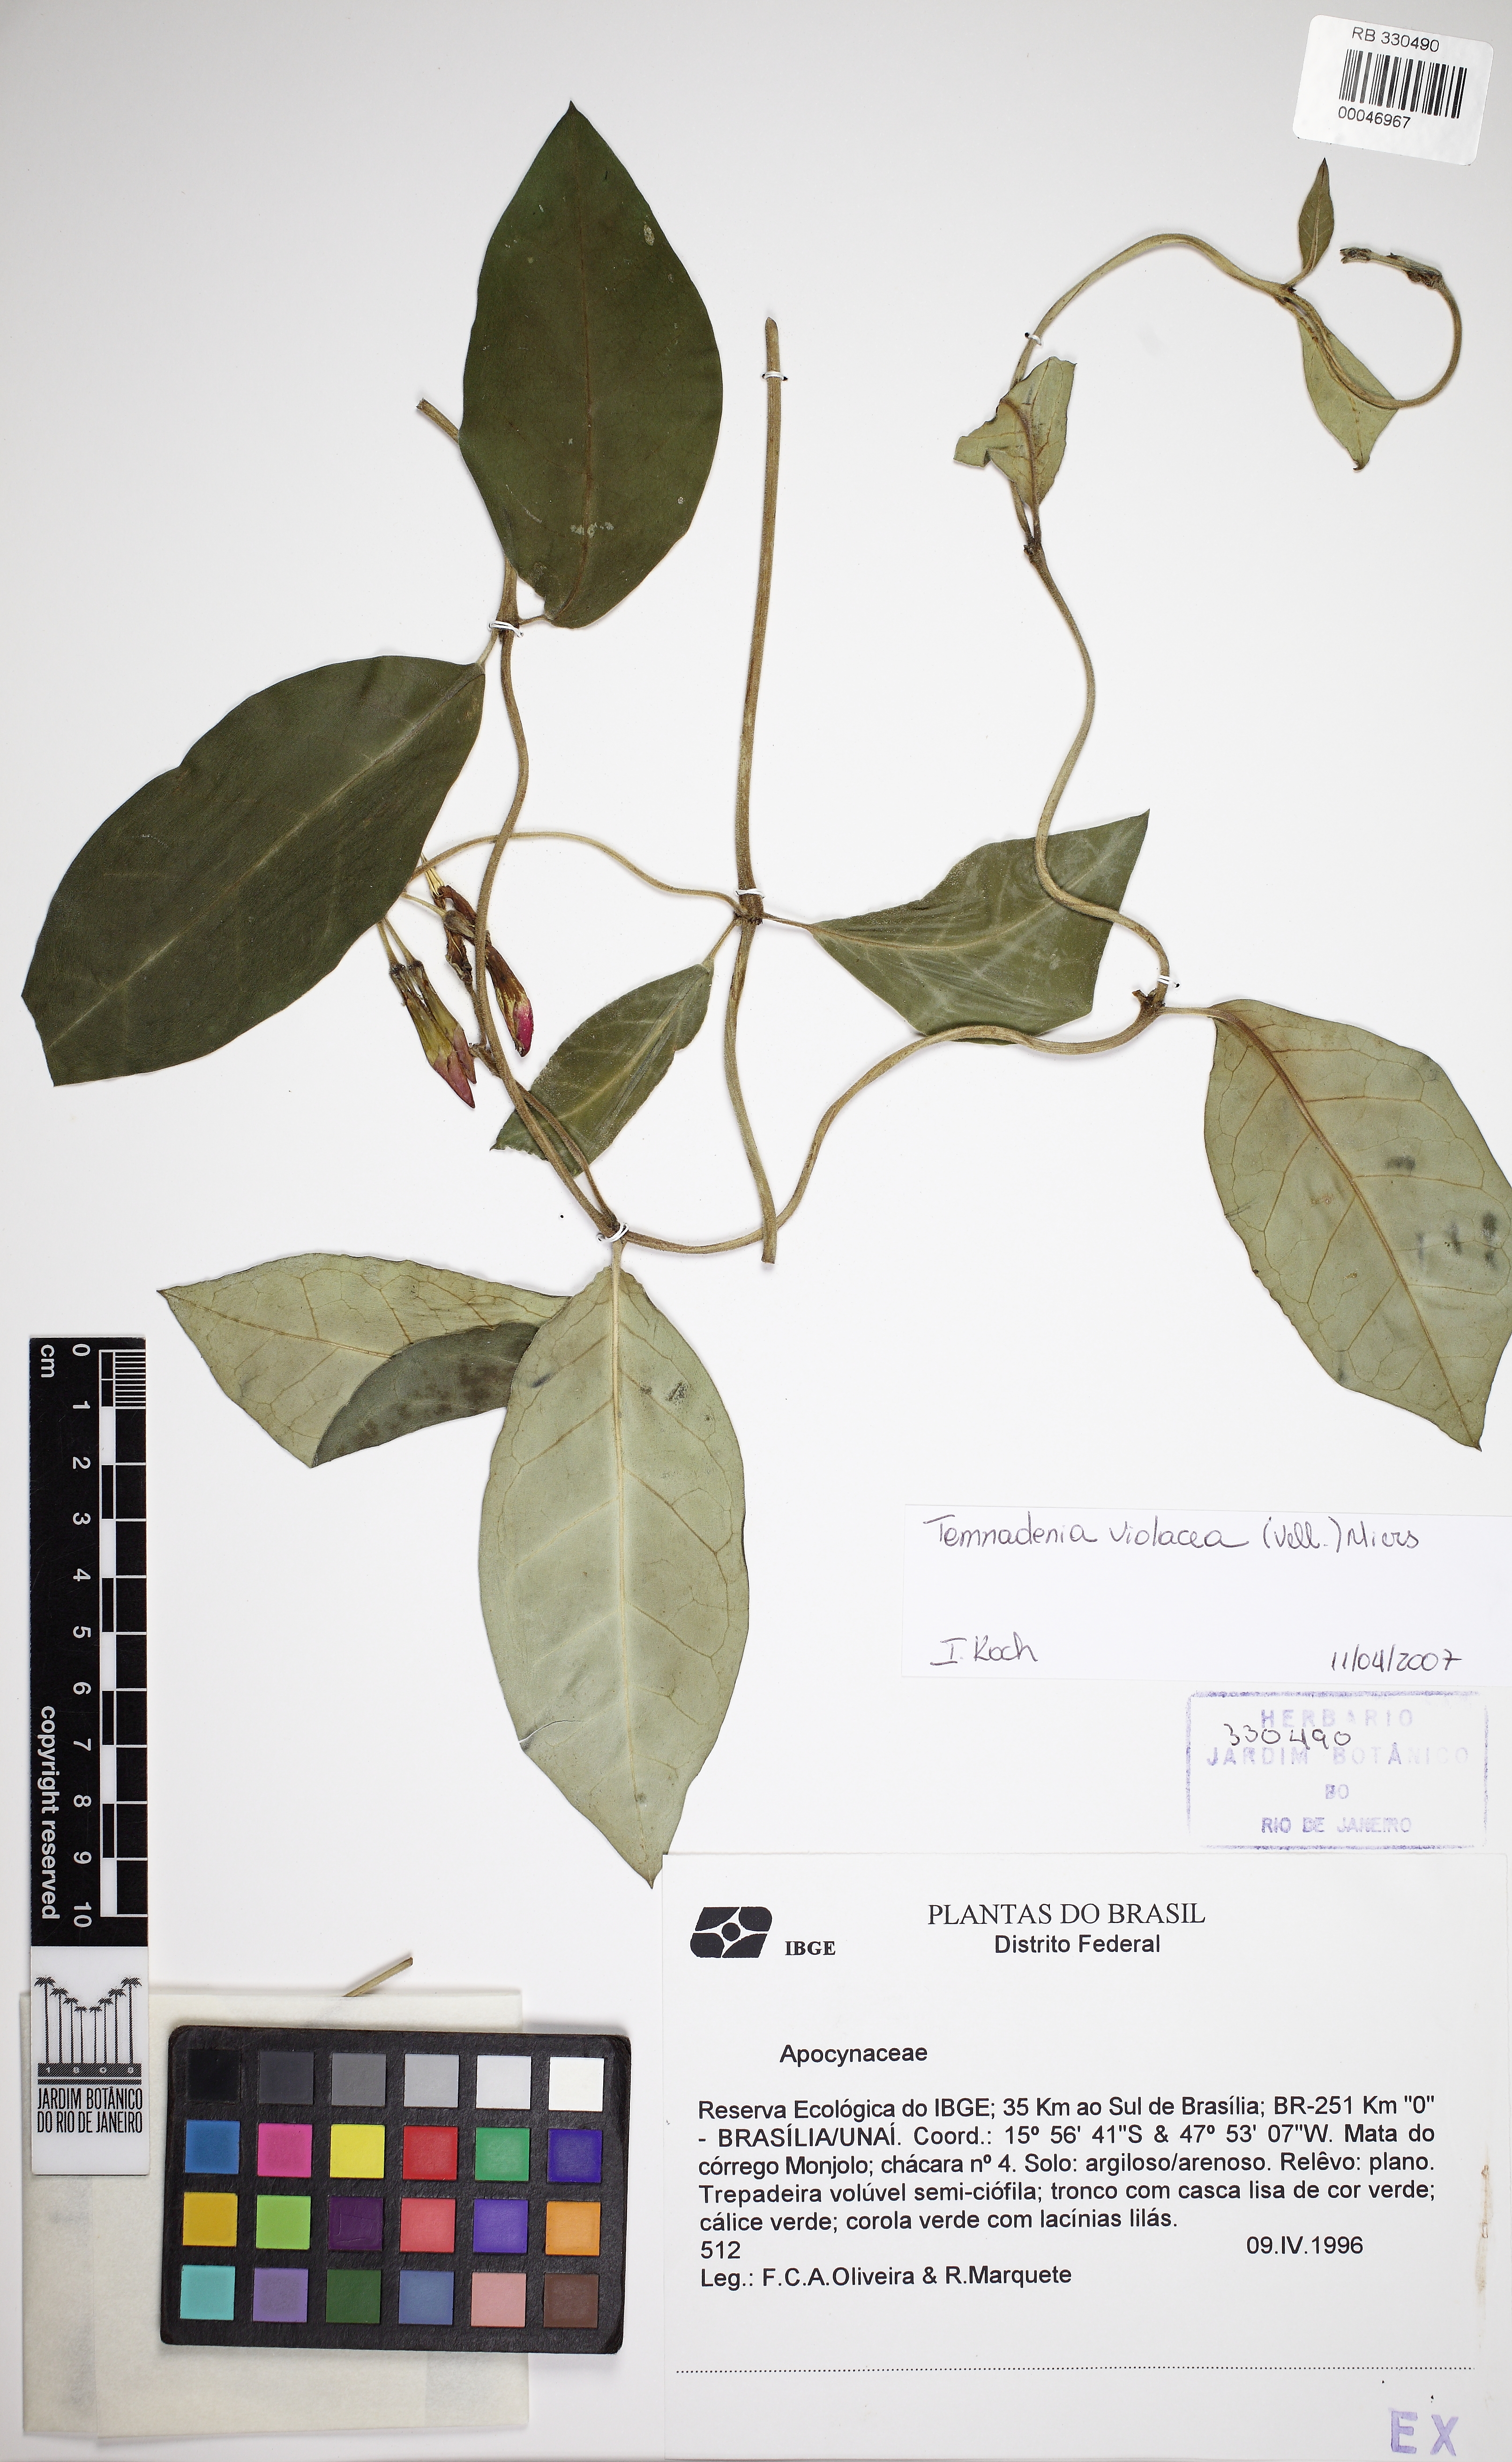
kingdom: Plantae
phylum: Tracheophyta
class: Magnoliopsida
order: Gentianales
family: Apocynaceae
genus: Temnadenia
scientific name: Temnadenia violacea
